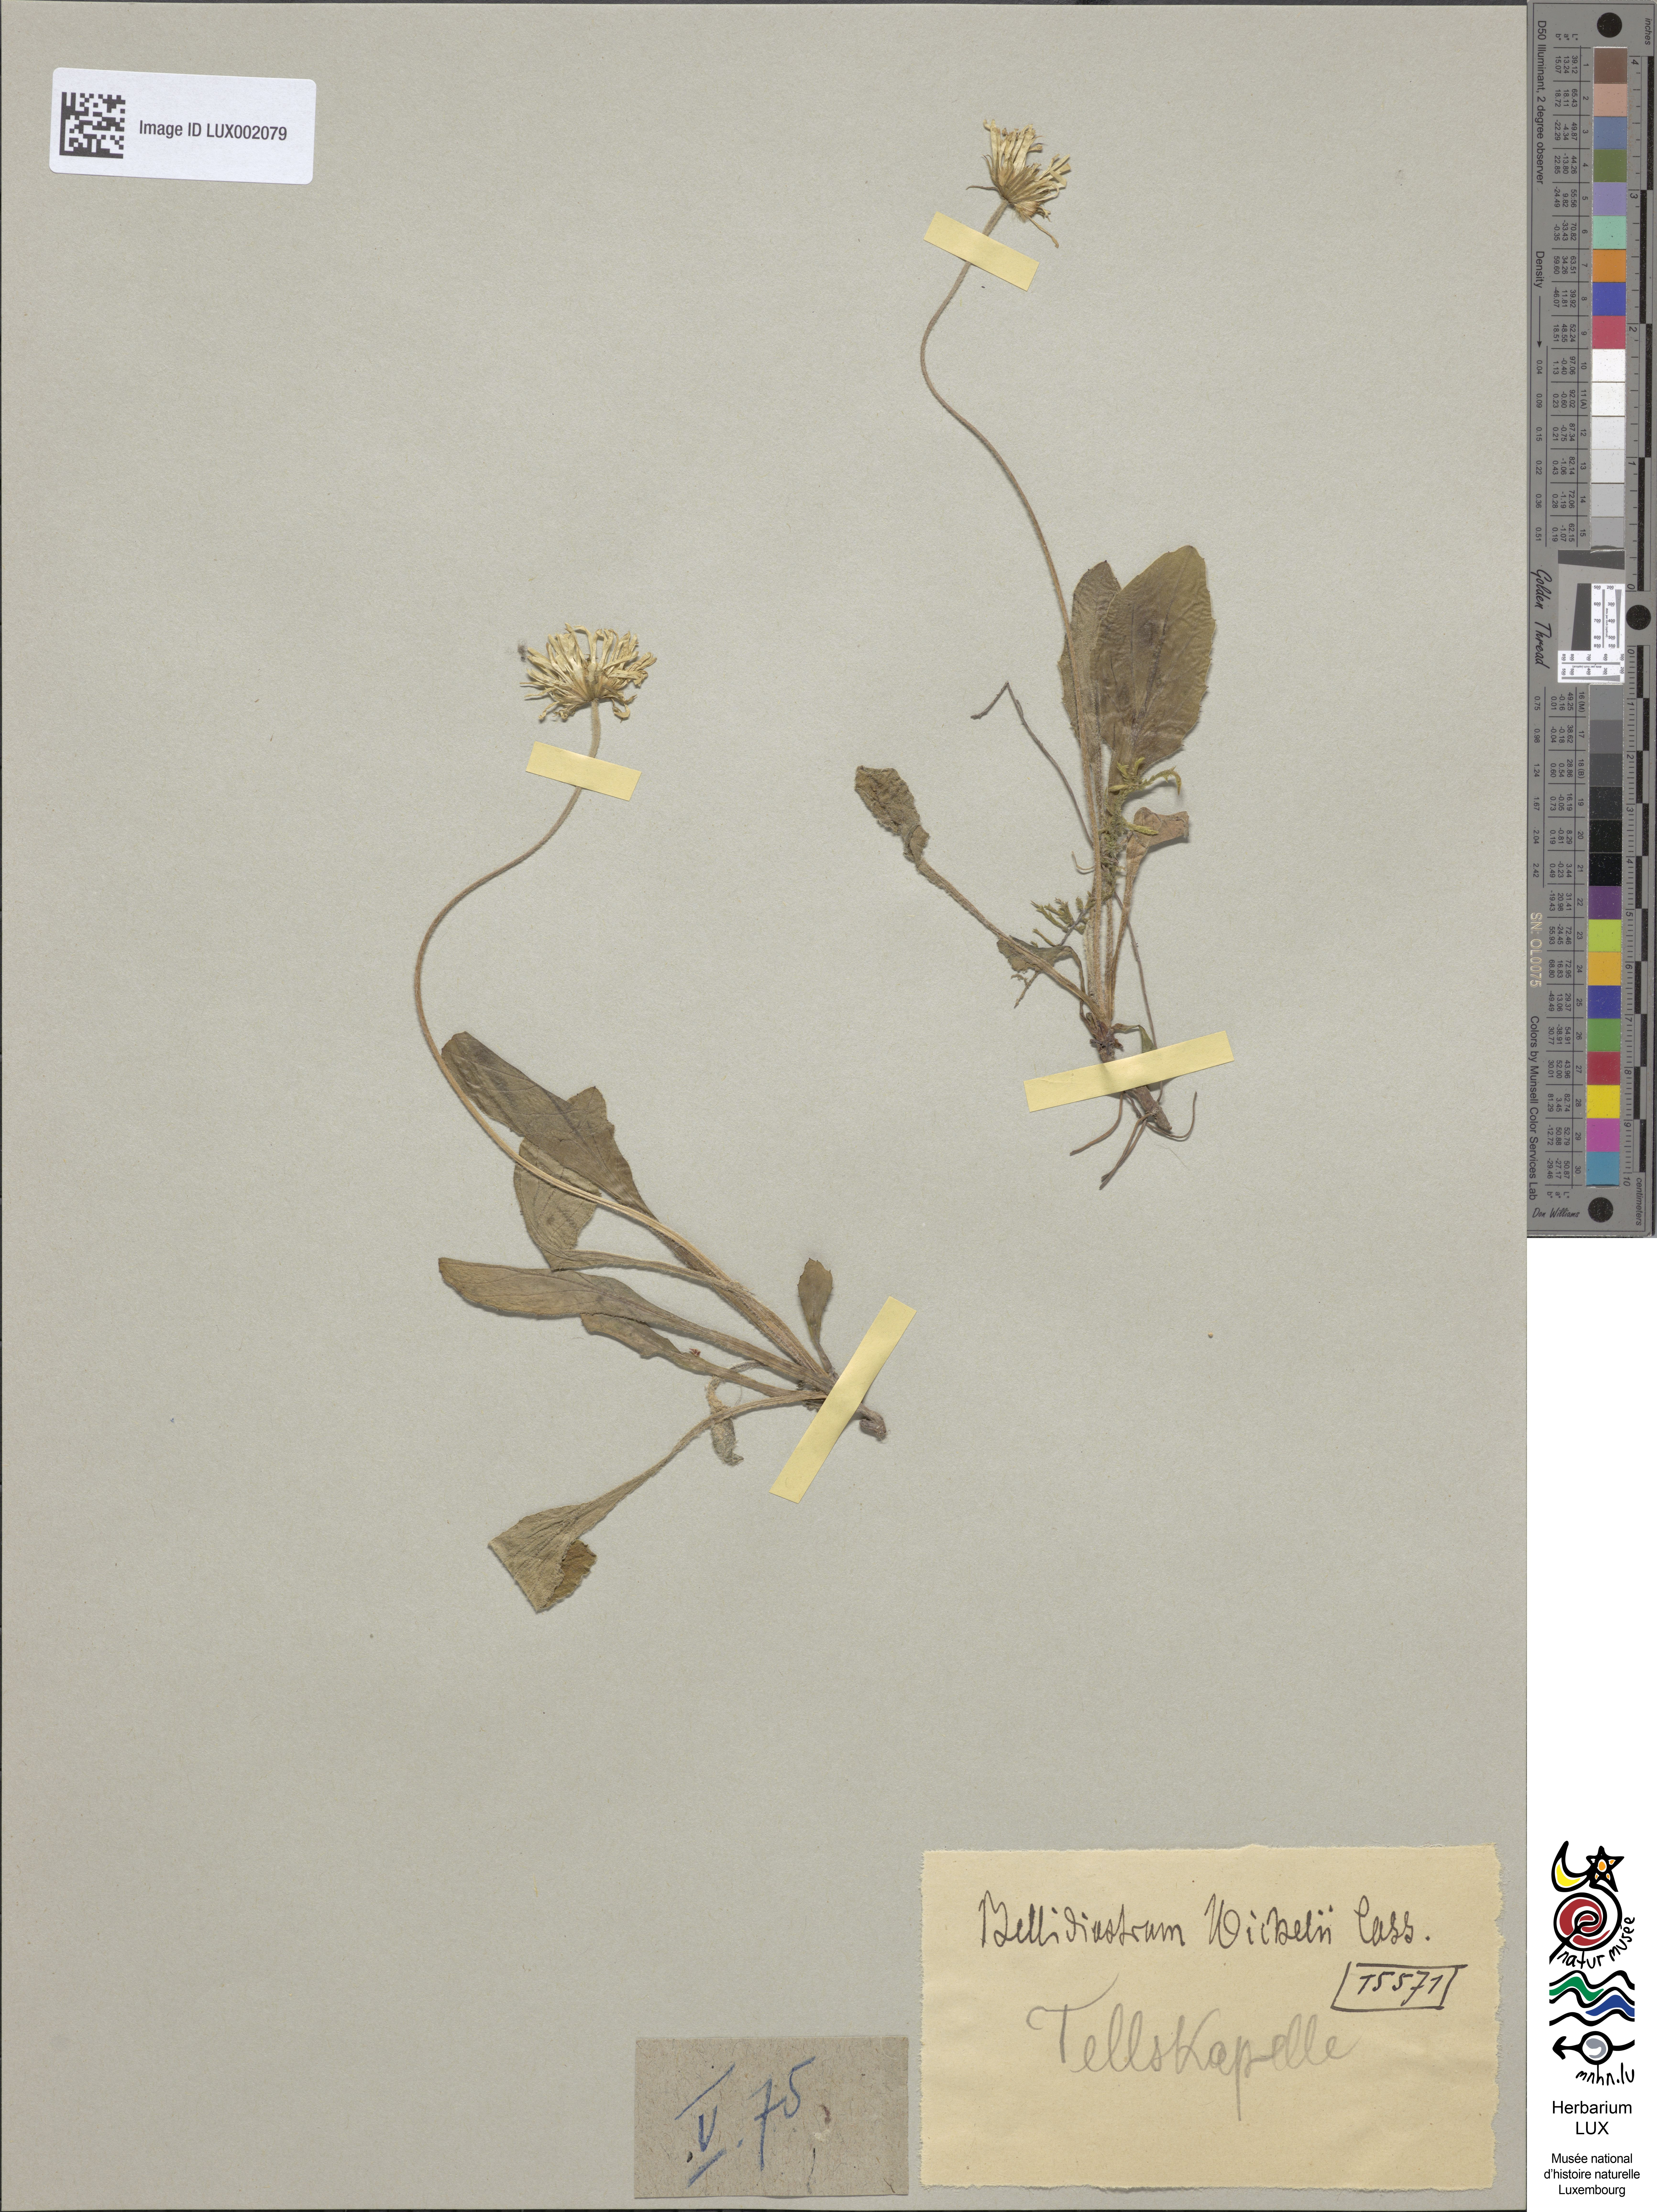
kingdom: Plantae
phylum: Tracheophyta
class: Magnoliopsida
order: Asterales
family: Asteraceae
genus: Bellidiastrum
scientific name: Bellidiastrum michelii
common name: Daisy-star aster
